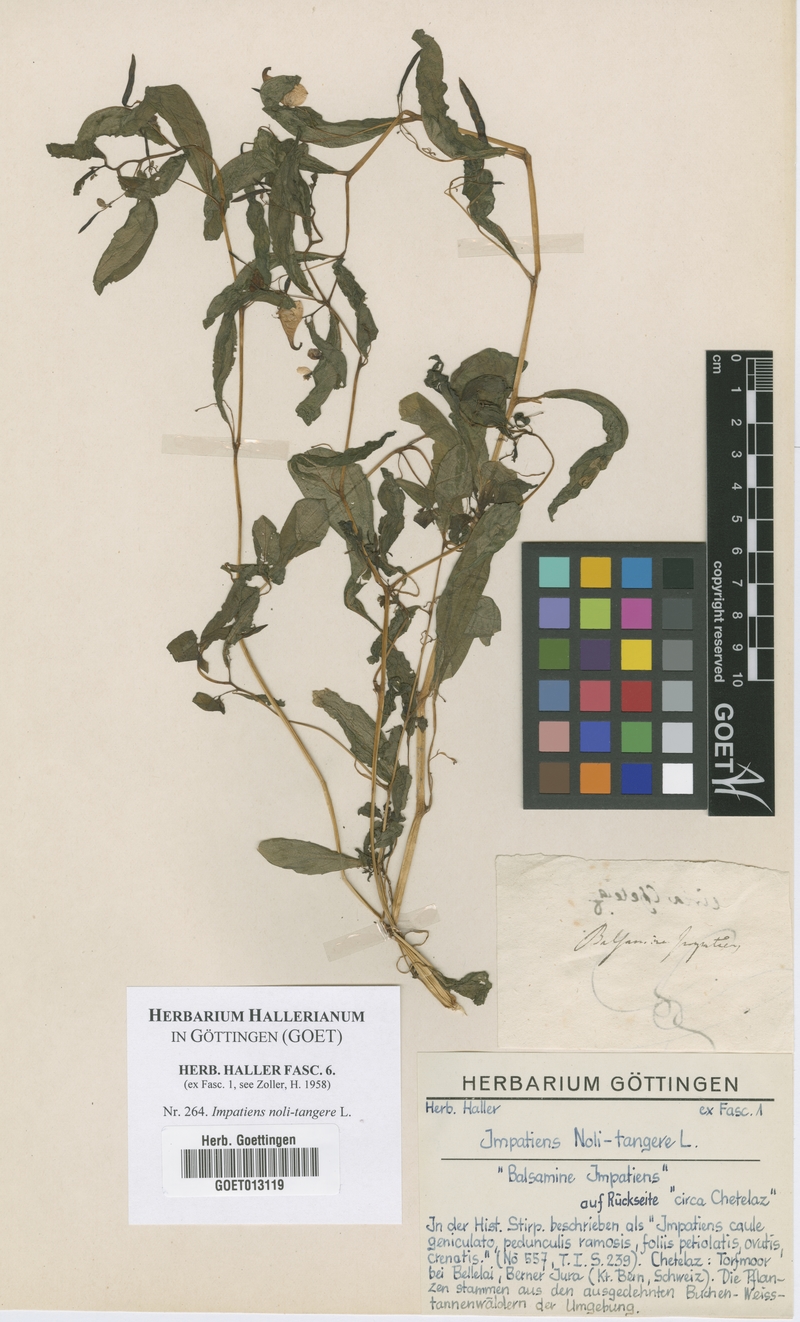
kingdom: Plantae
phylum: Tracheophyta
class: Magnoliopsida
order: Ericales
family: Balsaminaceae
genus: Impatiens
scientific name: Impatiens noli-tangere
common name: Touch-me-not balsam
